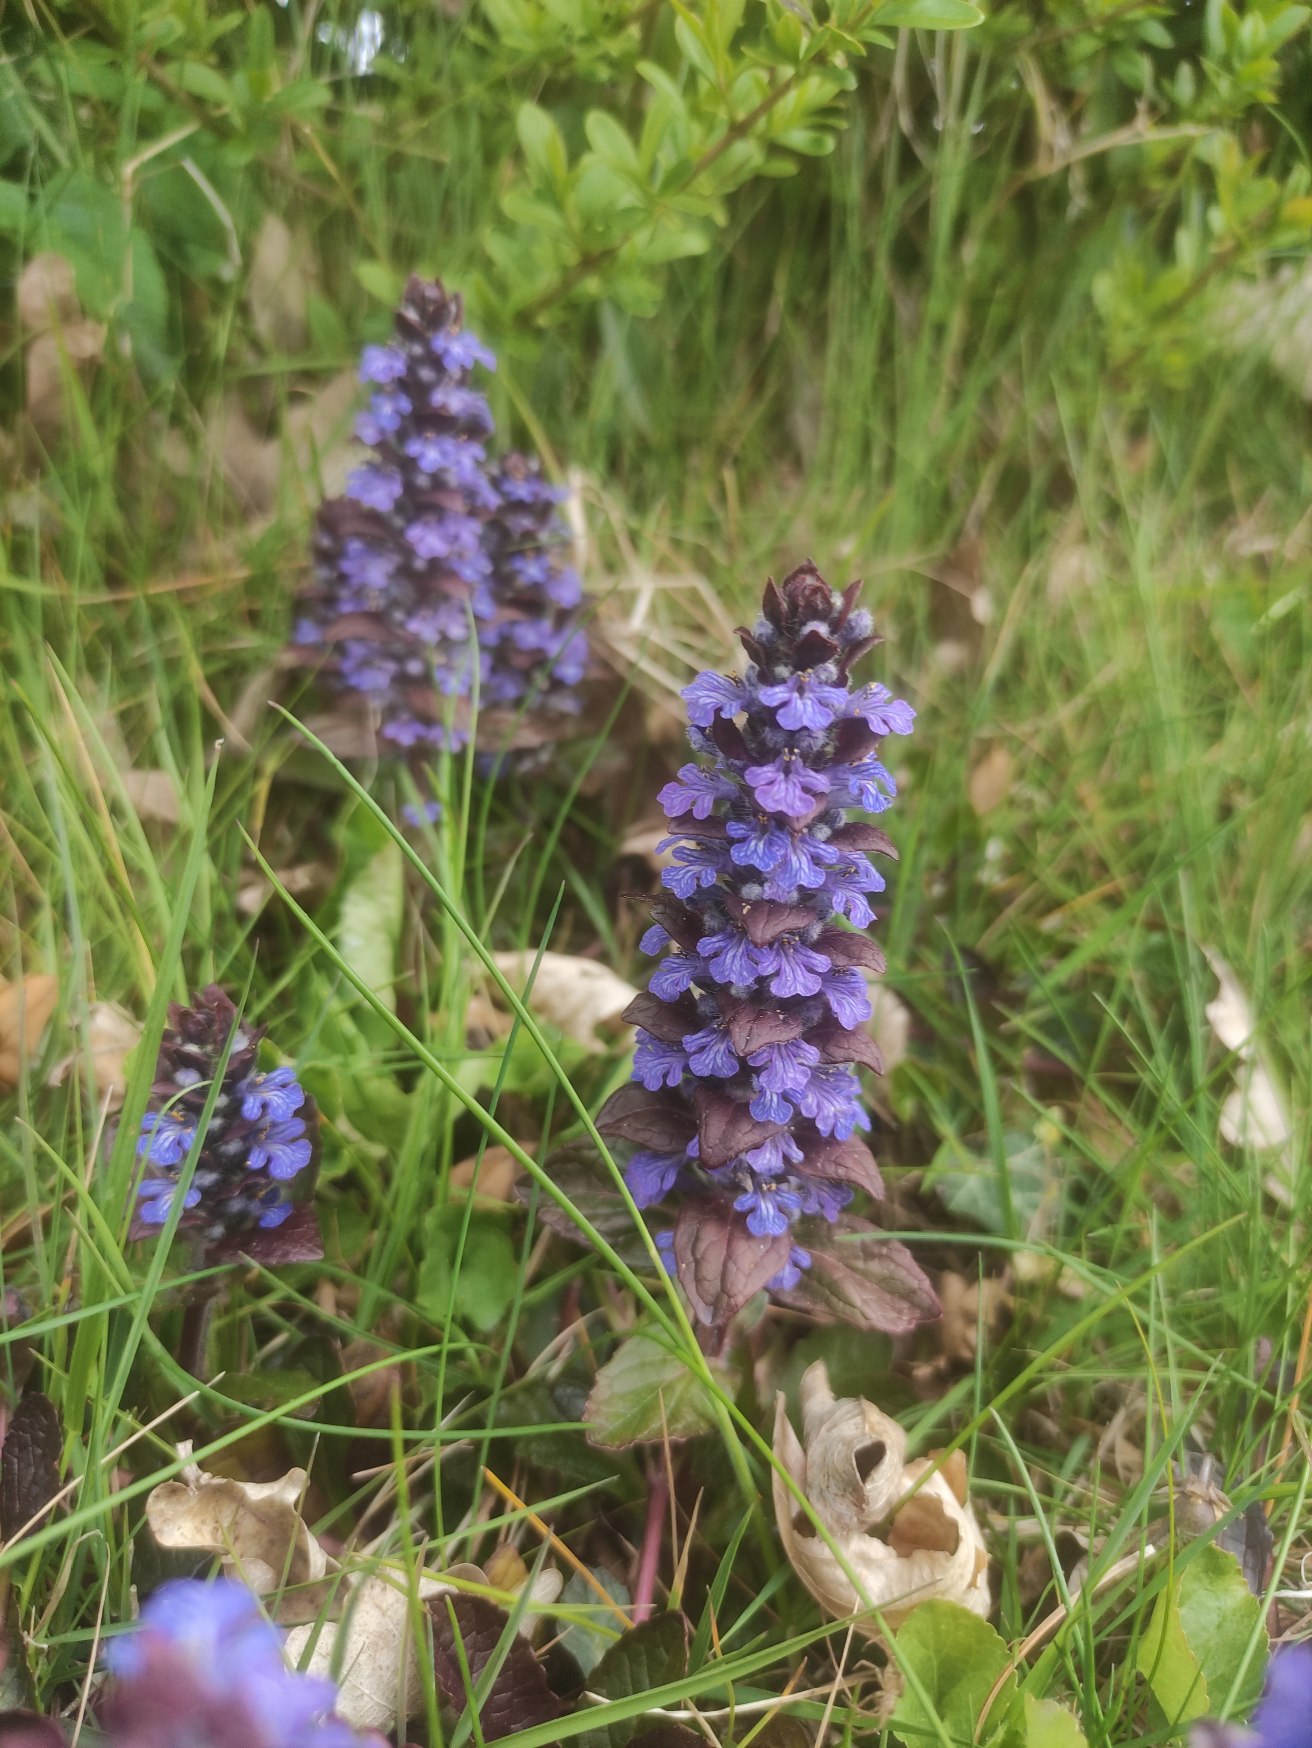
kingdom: Plantae
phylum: Tracheophyta
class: Magnoliopsida
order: Lamiales
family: Lamiaceae
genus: Ajuga
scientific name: Ajuga reptans
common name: Krybende læbeløs
